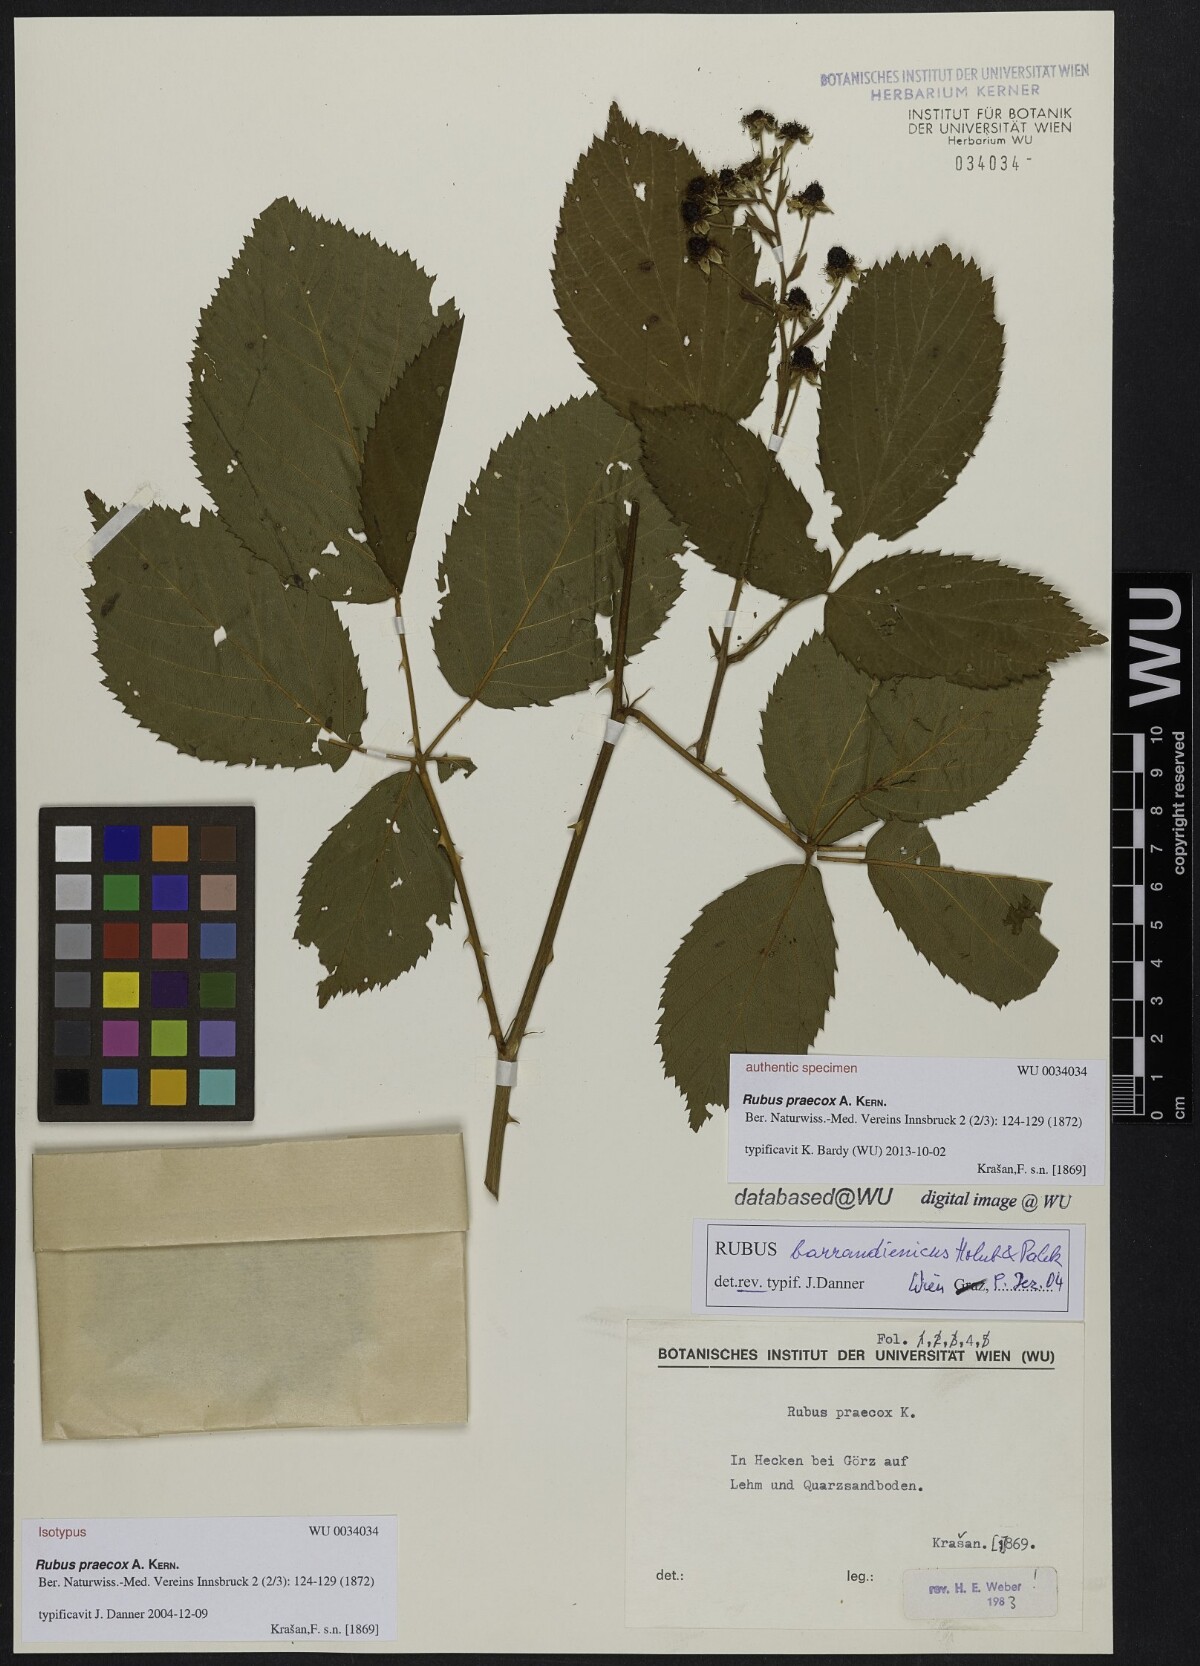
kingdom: Plantae
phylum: Tracheophyta
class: Magnoliopsida
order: Rosales
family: Rosaceae
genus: Rubus
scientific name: Rubus sulcatus
